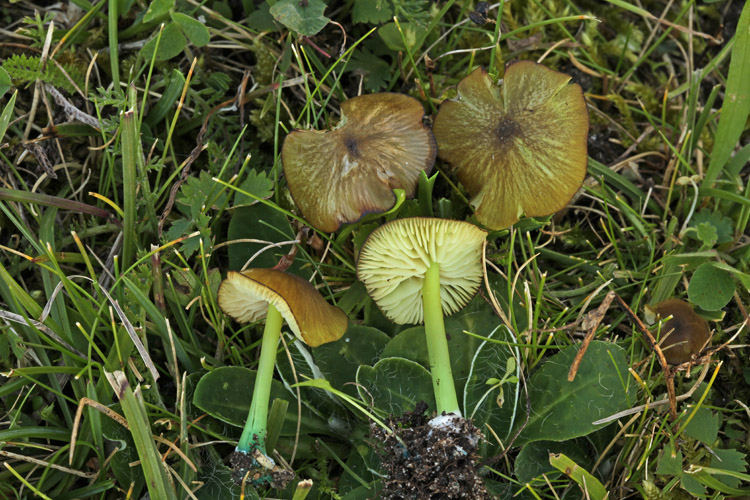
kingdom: Fungi
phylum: Basidiomycota
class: Agaricomycetes
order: Agaricales
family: Entolomataceae
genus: Entoloma
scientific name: Entoloma incanum
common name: grøngul rødblad
